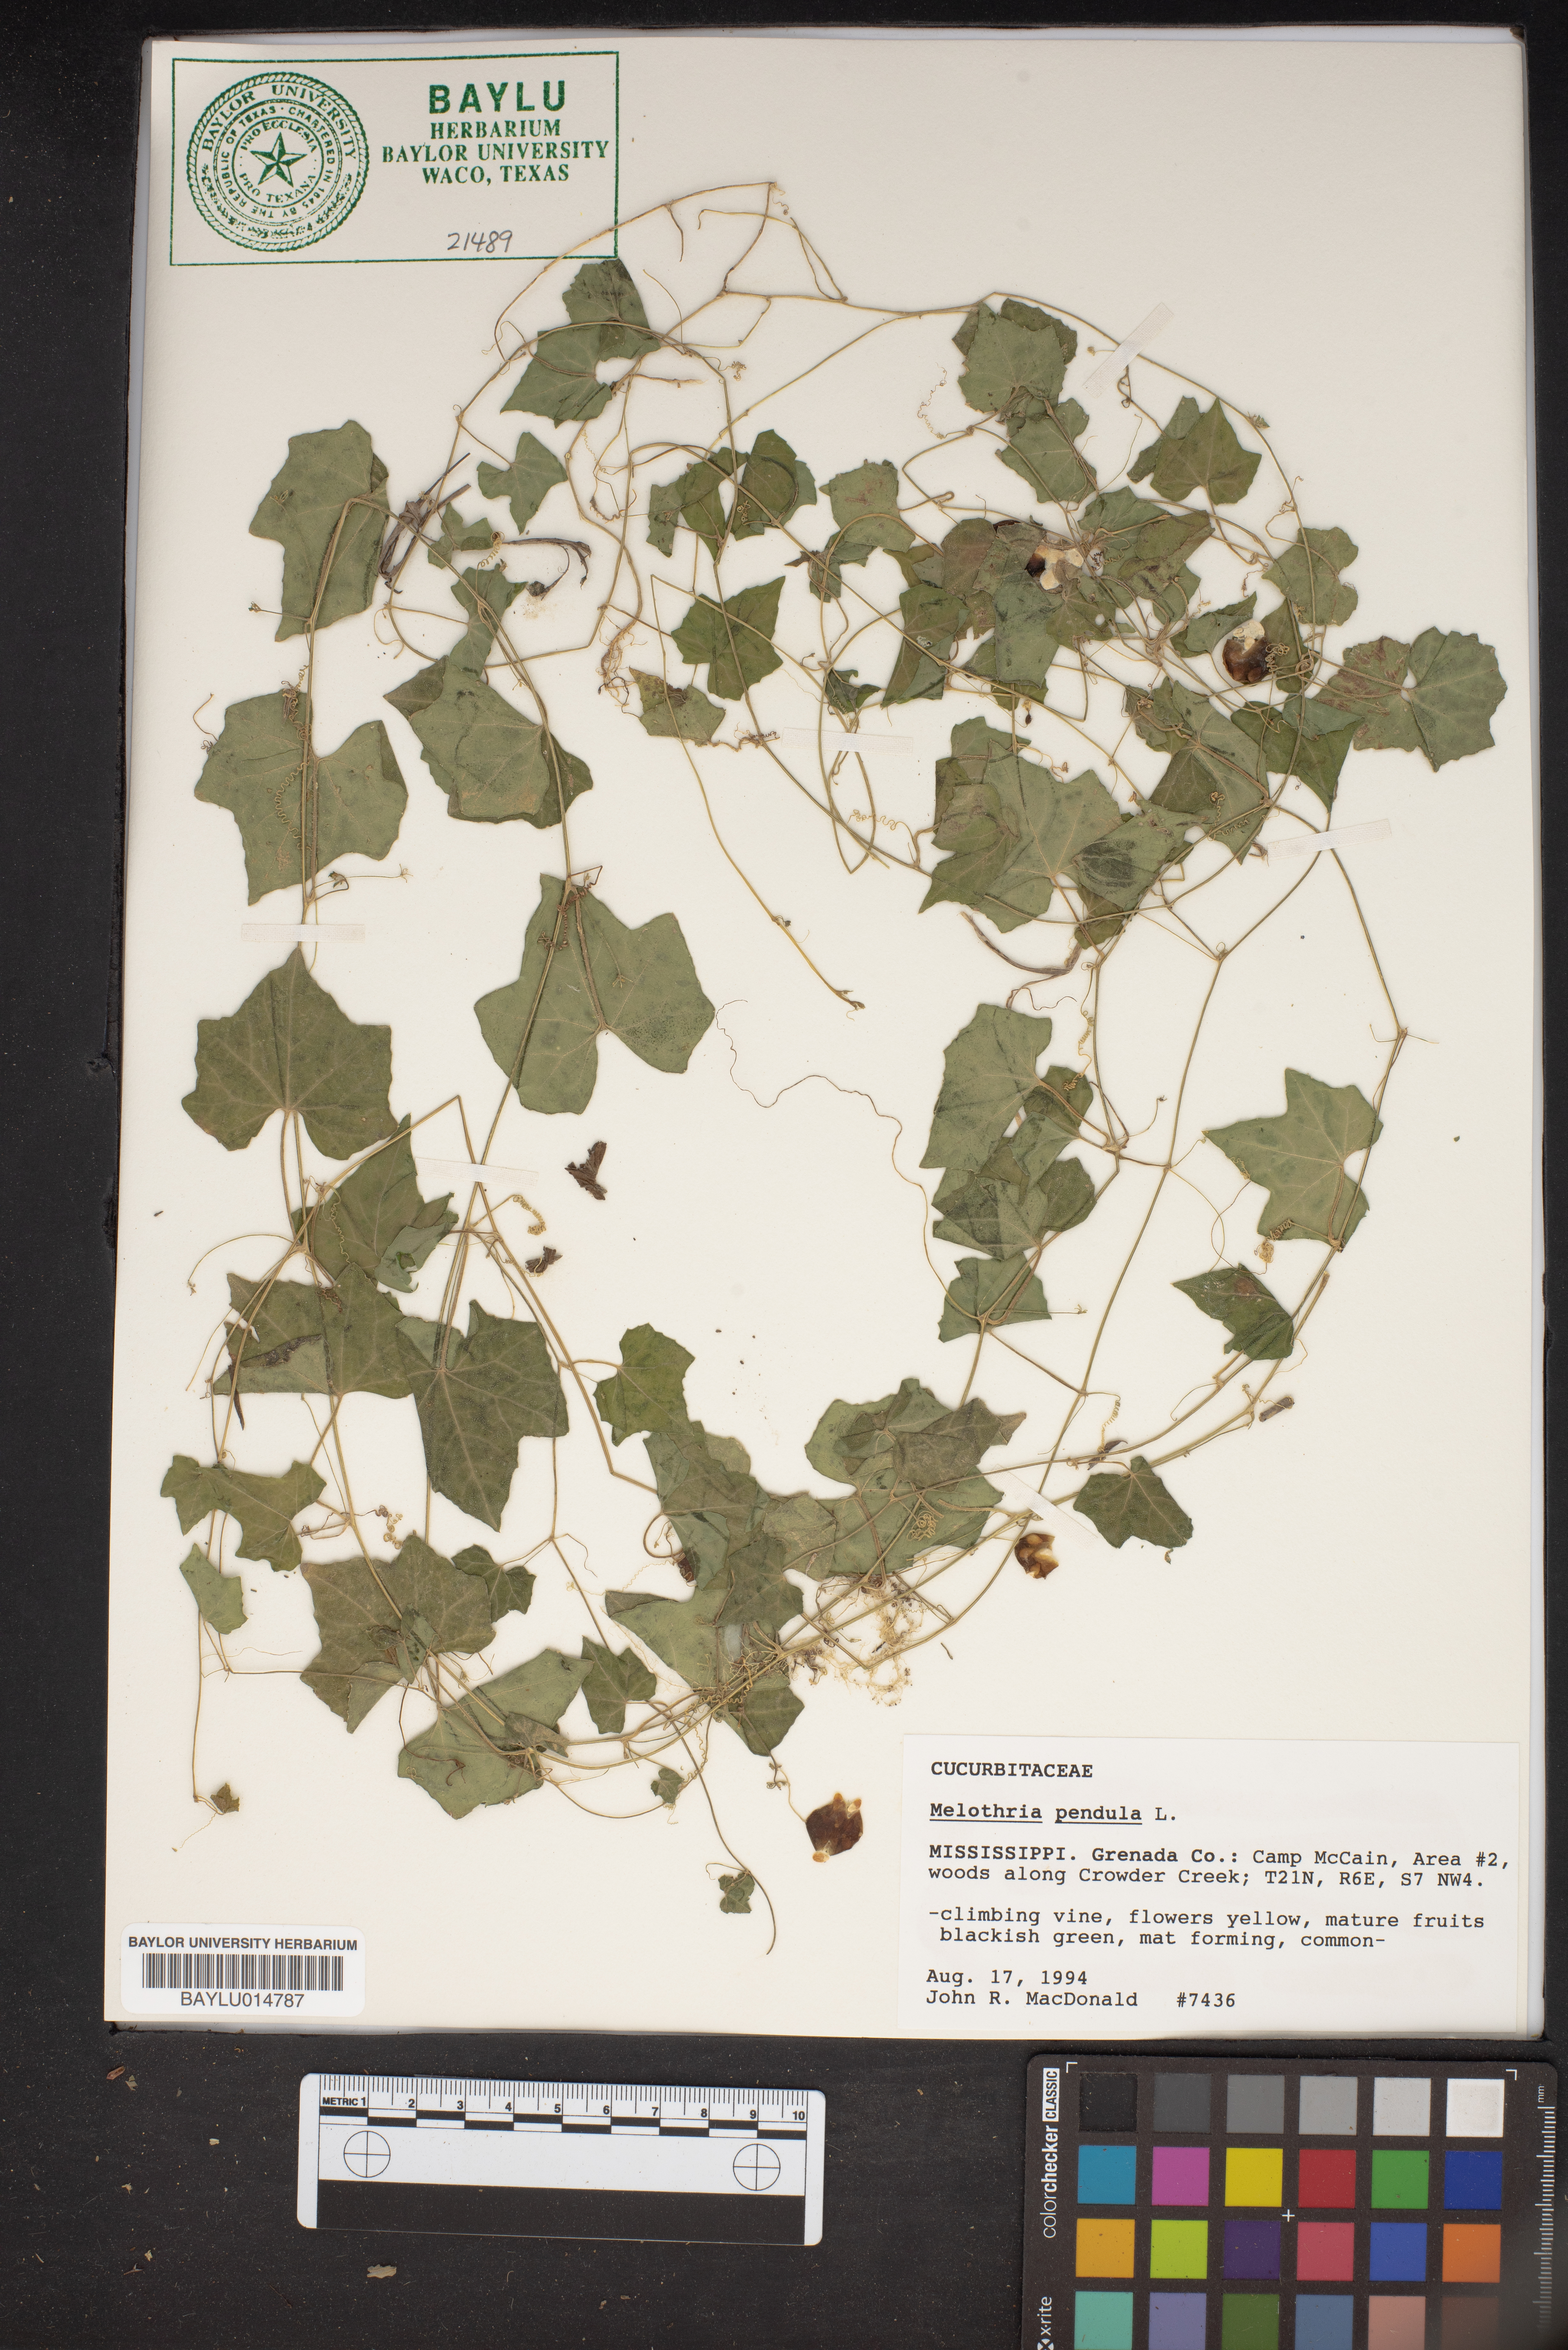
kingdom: Plantae
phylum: Tracheophyta
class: Magnoliopsida
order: Cucurbitales
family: Cucurbitaceae
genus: Melothria
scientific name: Melothria pendula
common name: Creeping-cucumber
